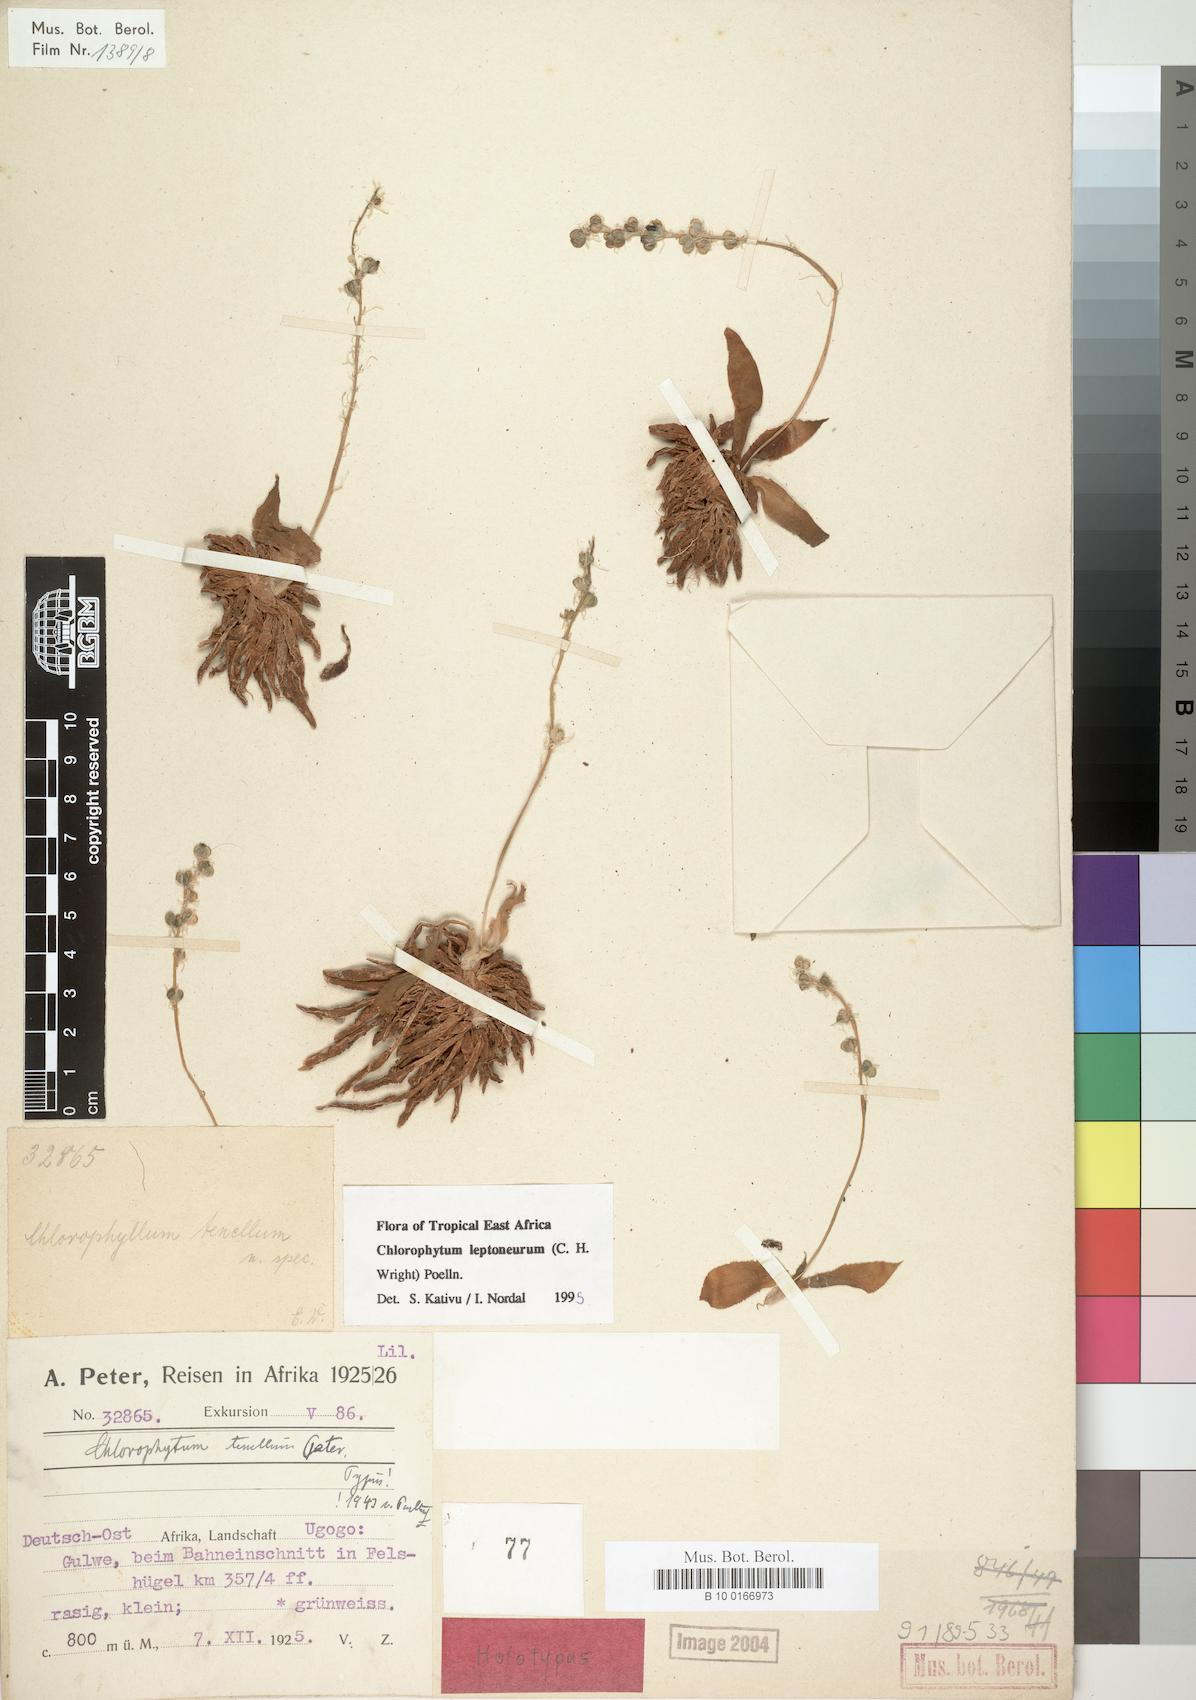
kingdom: Plantae
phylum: Tracheophyta
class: Liliopsida
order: Asparagales
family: Asparagaceae
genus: Chlorophytum
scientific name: Chlorophytum leptoneurum
